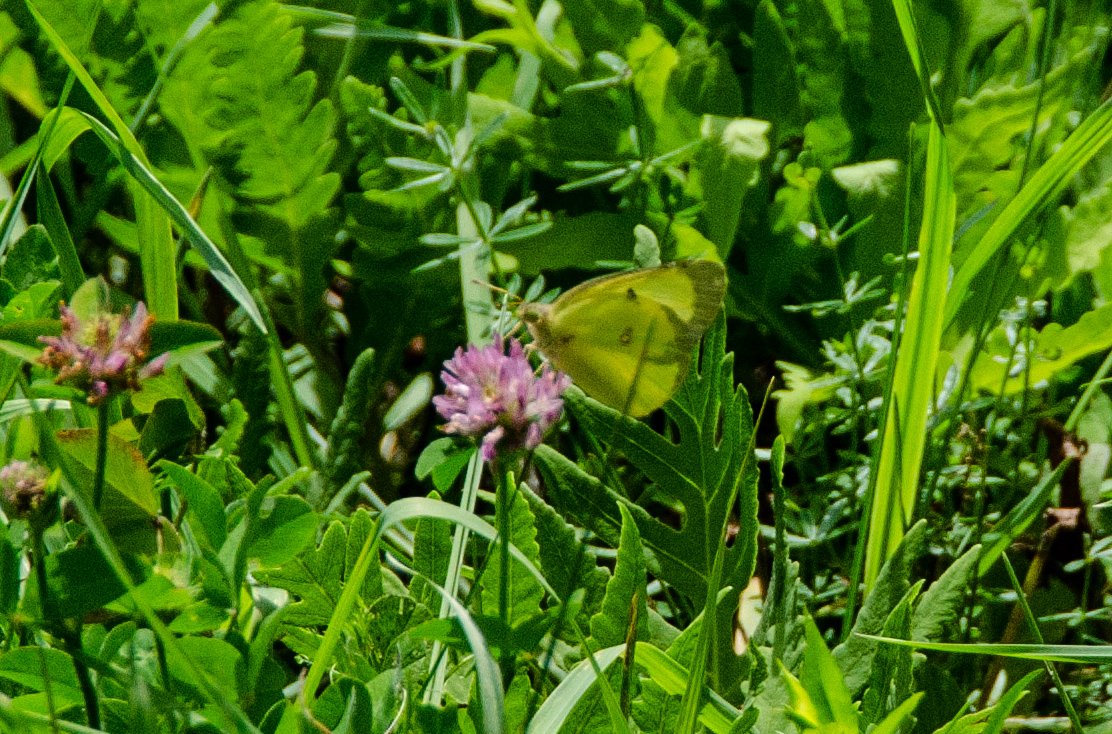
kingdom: Animalia
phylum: Arthropoda
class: Insecta
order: Lepidoptera
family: Pieridae
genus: Colias
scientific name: Colias philodice
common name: Clouded Sulphur
